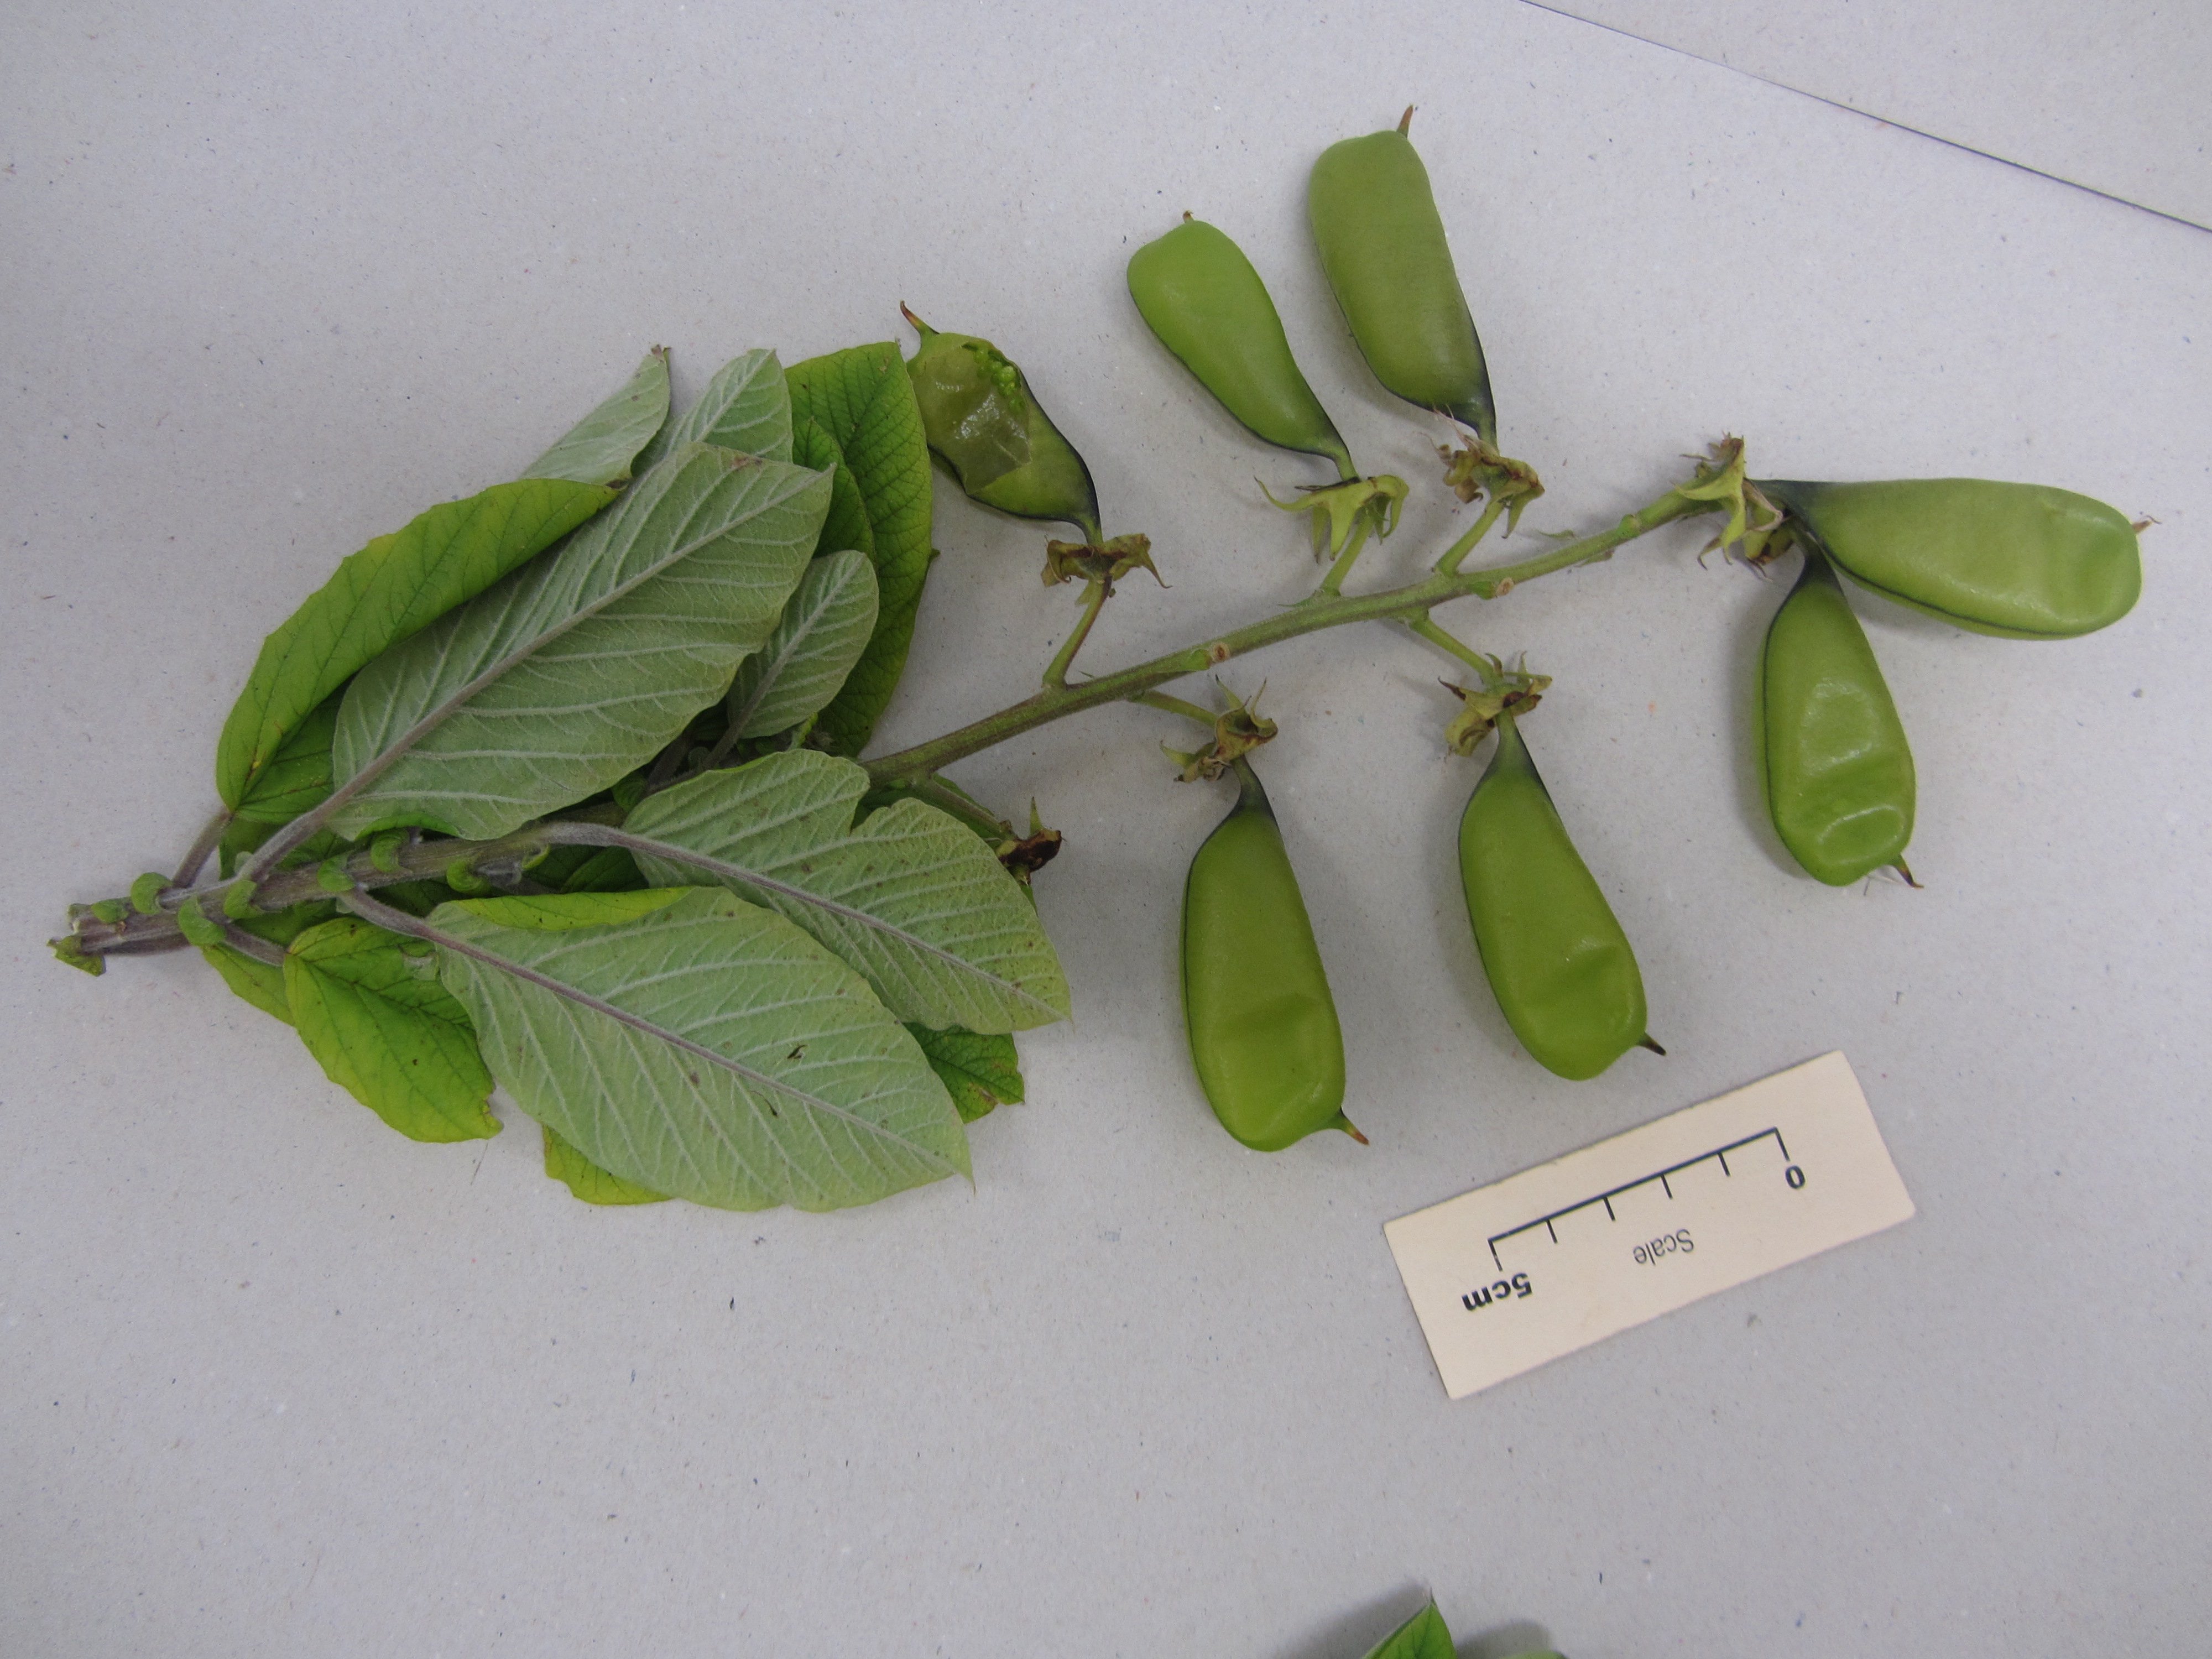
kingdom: Plantae
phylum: Marchantiophyta
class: Jungermanniopsida
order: Jungermanniales
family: Jungermanniaceae
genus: Jungermannia
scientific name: Jungermannia
